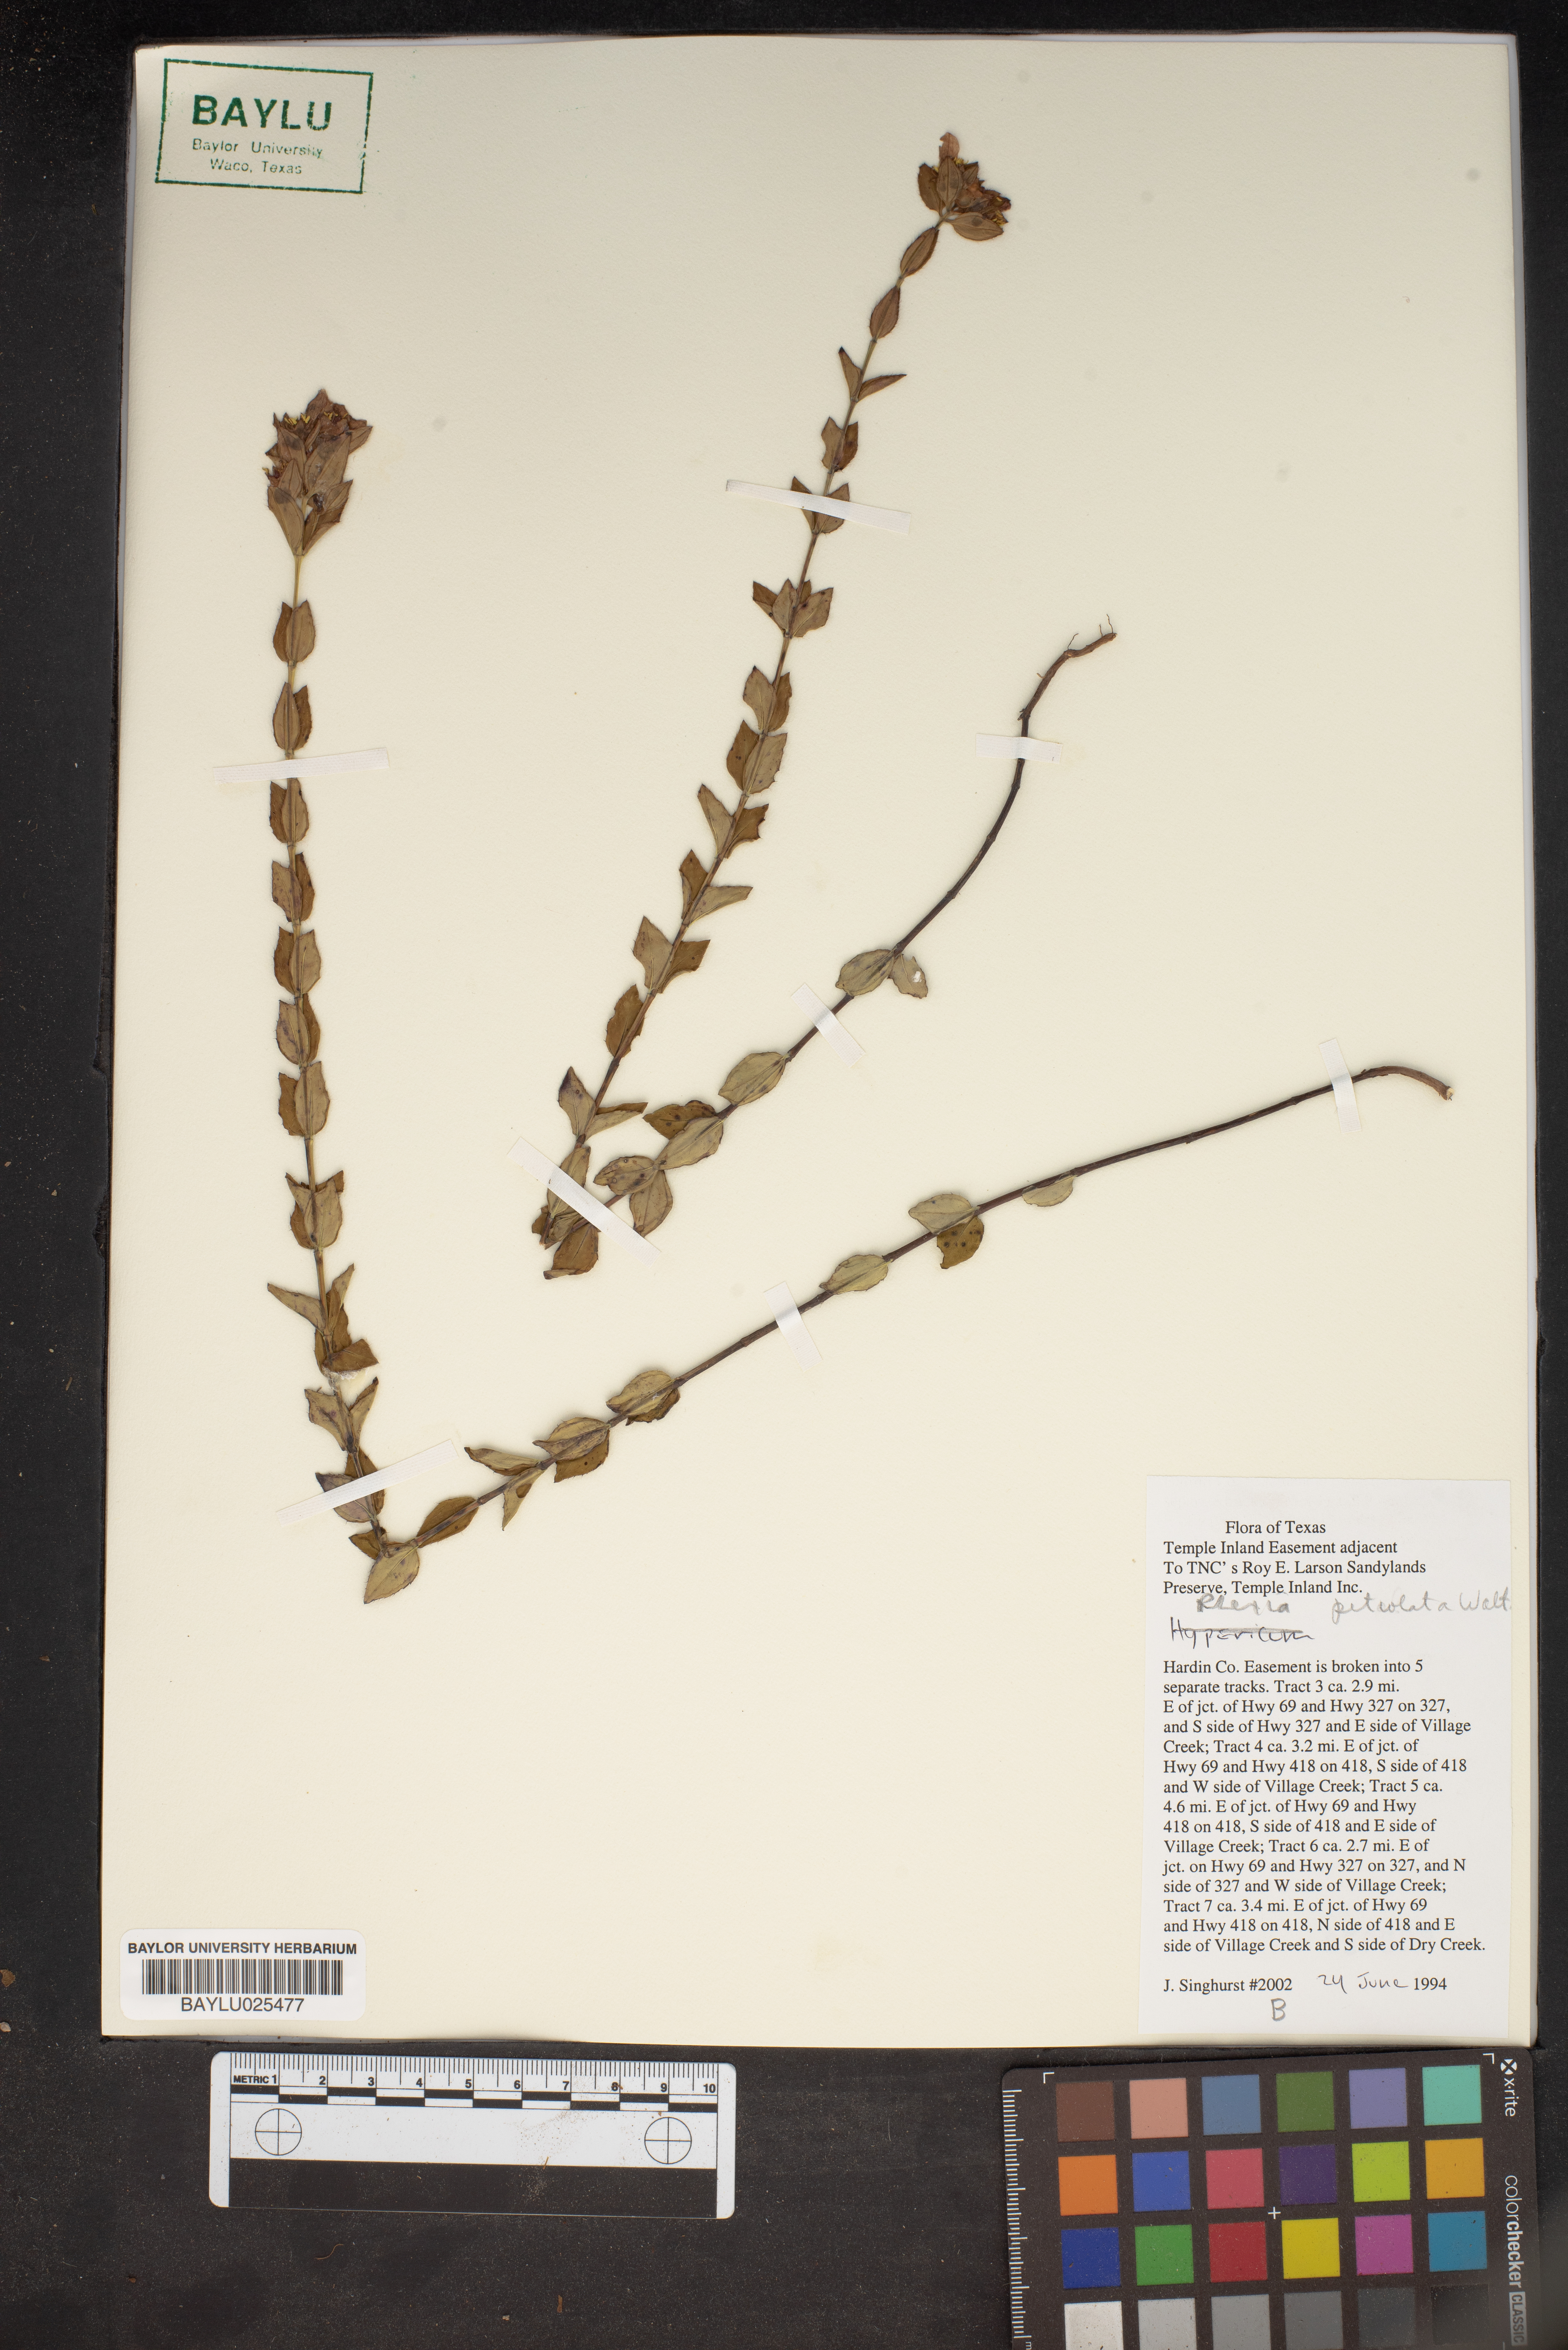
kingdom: Plantae
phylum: Tracheophyta
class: Magnoliopsida
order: Myrtales
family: Melastomataceae
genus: Rhexia
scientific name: Rhexia petiolata
